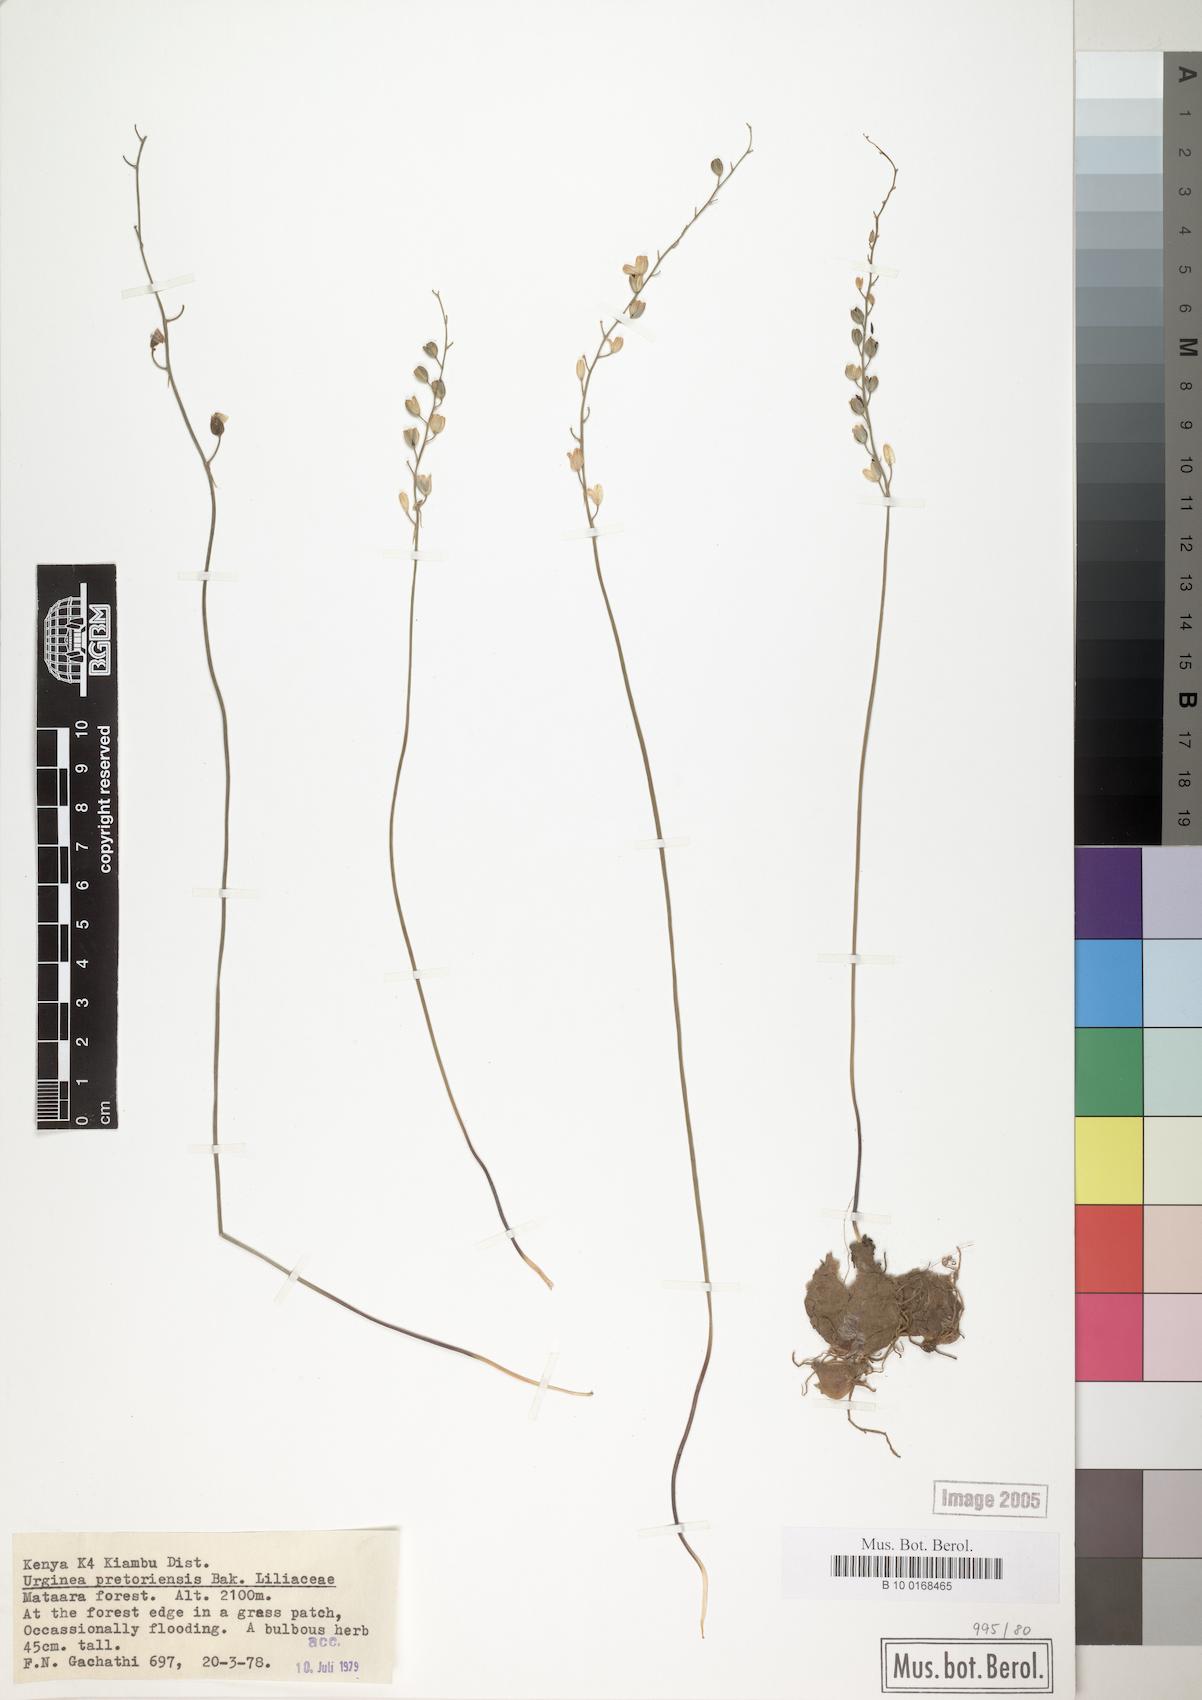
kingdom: Plantae
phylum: Tracheophyta
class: Liliopsida
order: Asparagales
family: Asparagaceae
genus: Drimia
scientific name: Drimia modesta
